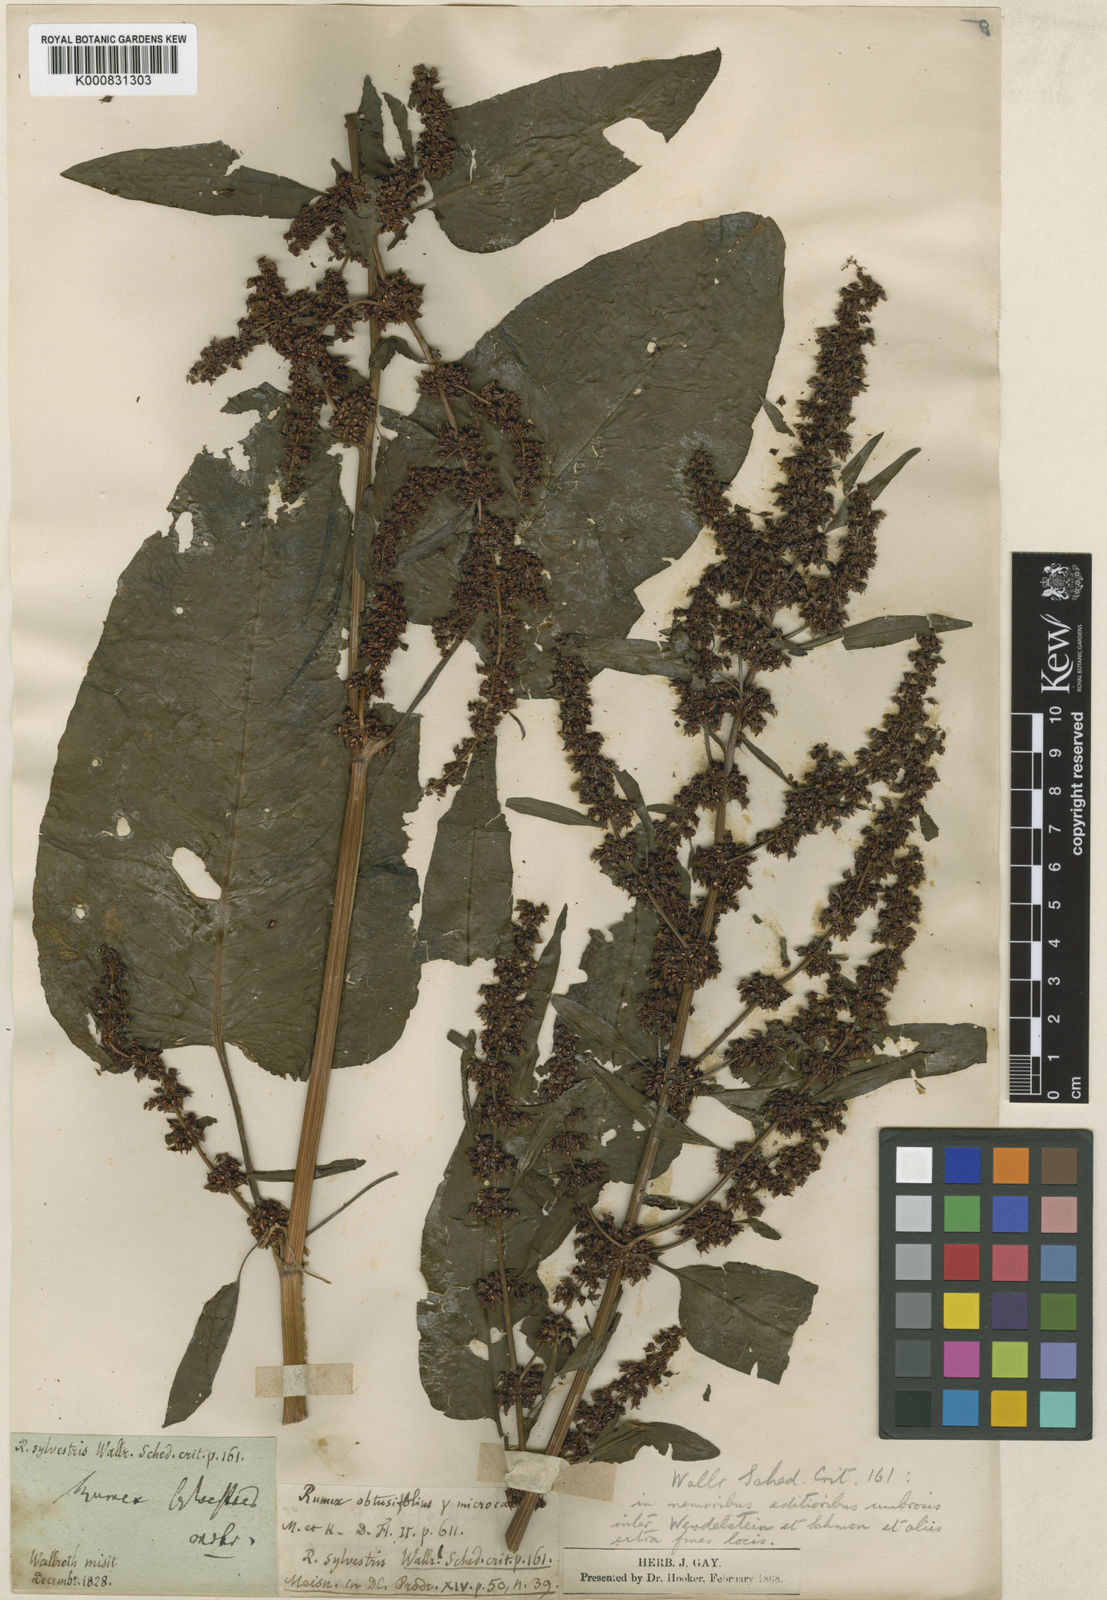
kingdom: Plantae
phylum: Tracheophyta
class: Magnoliopsida
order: Caryophyllales
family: Polygonaceae
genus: Rumex
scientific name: Rumex obtusifolius
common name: Bitter dock
